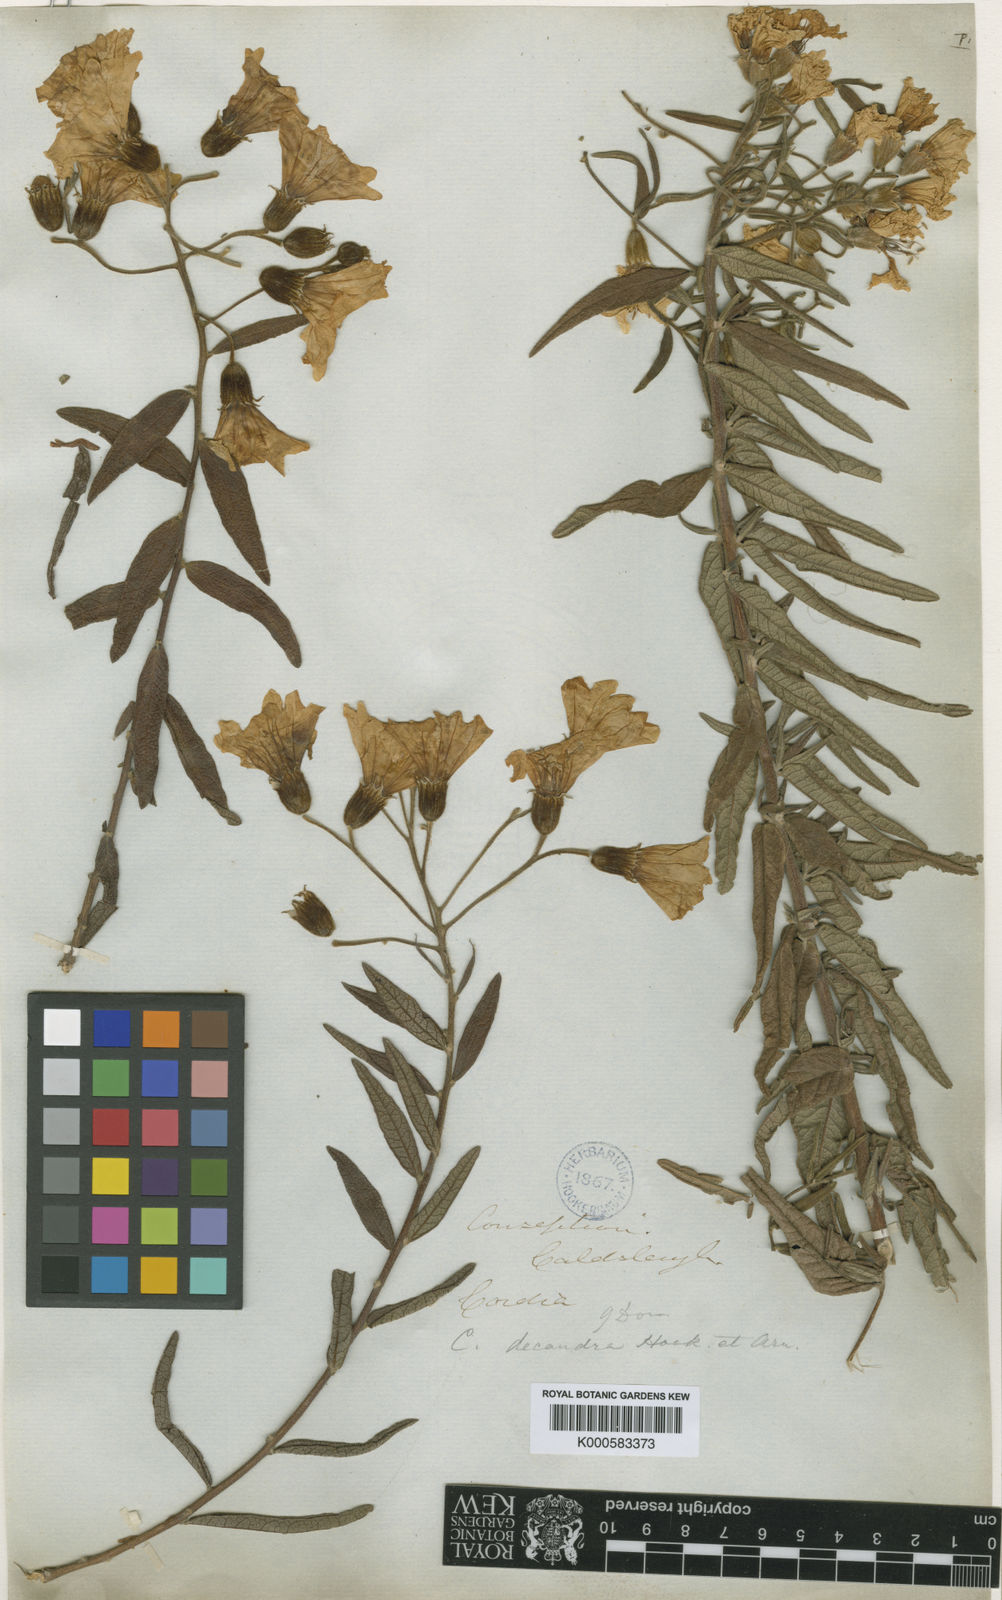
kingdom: Plantae
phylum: Tracheophyta
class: Magnoliopsida
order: Boraginales
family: Cordiaceae
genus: Cordia
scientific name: Cordia decandra
